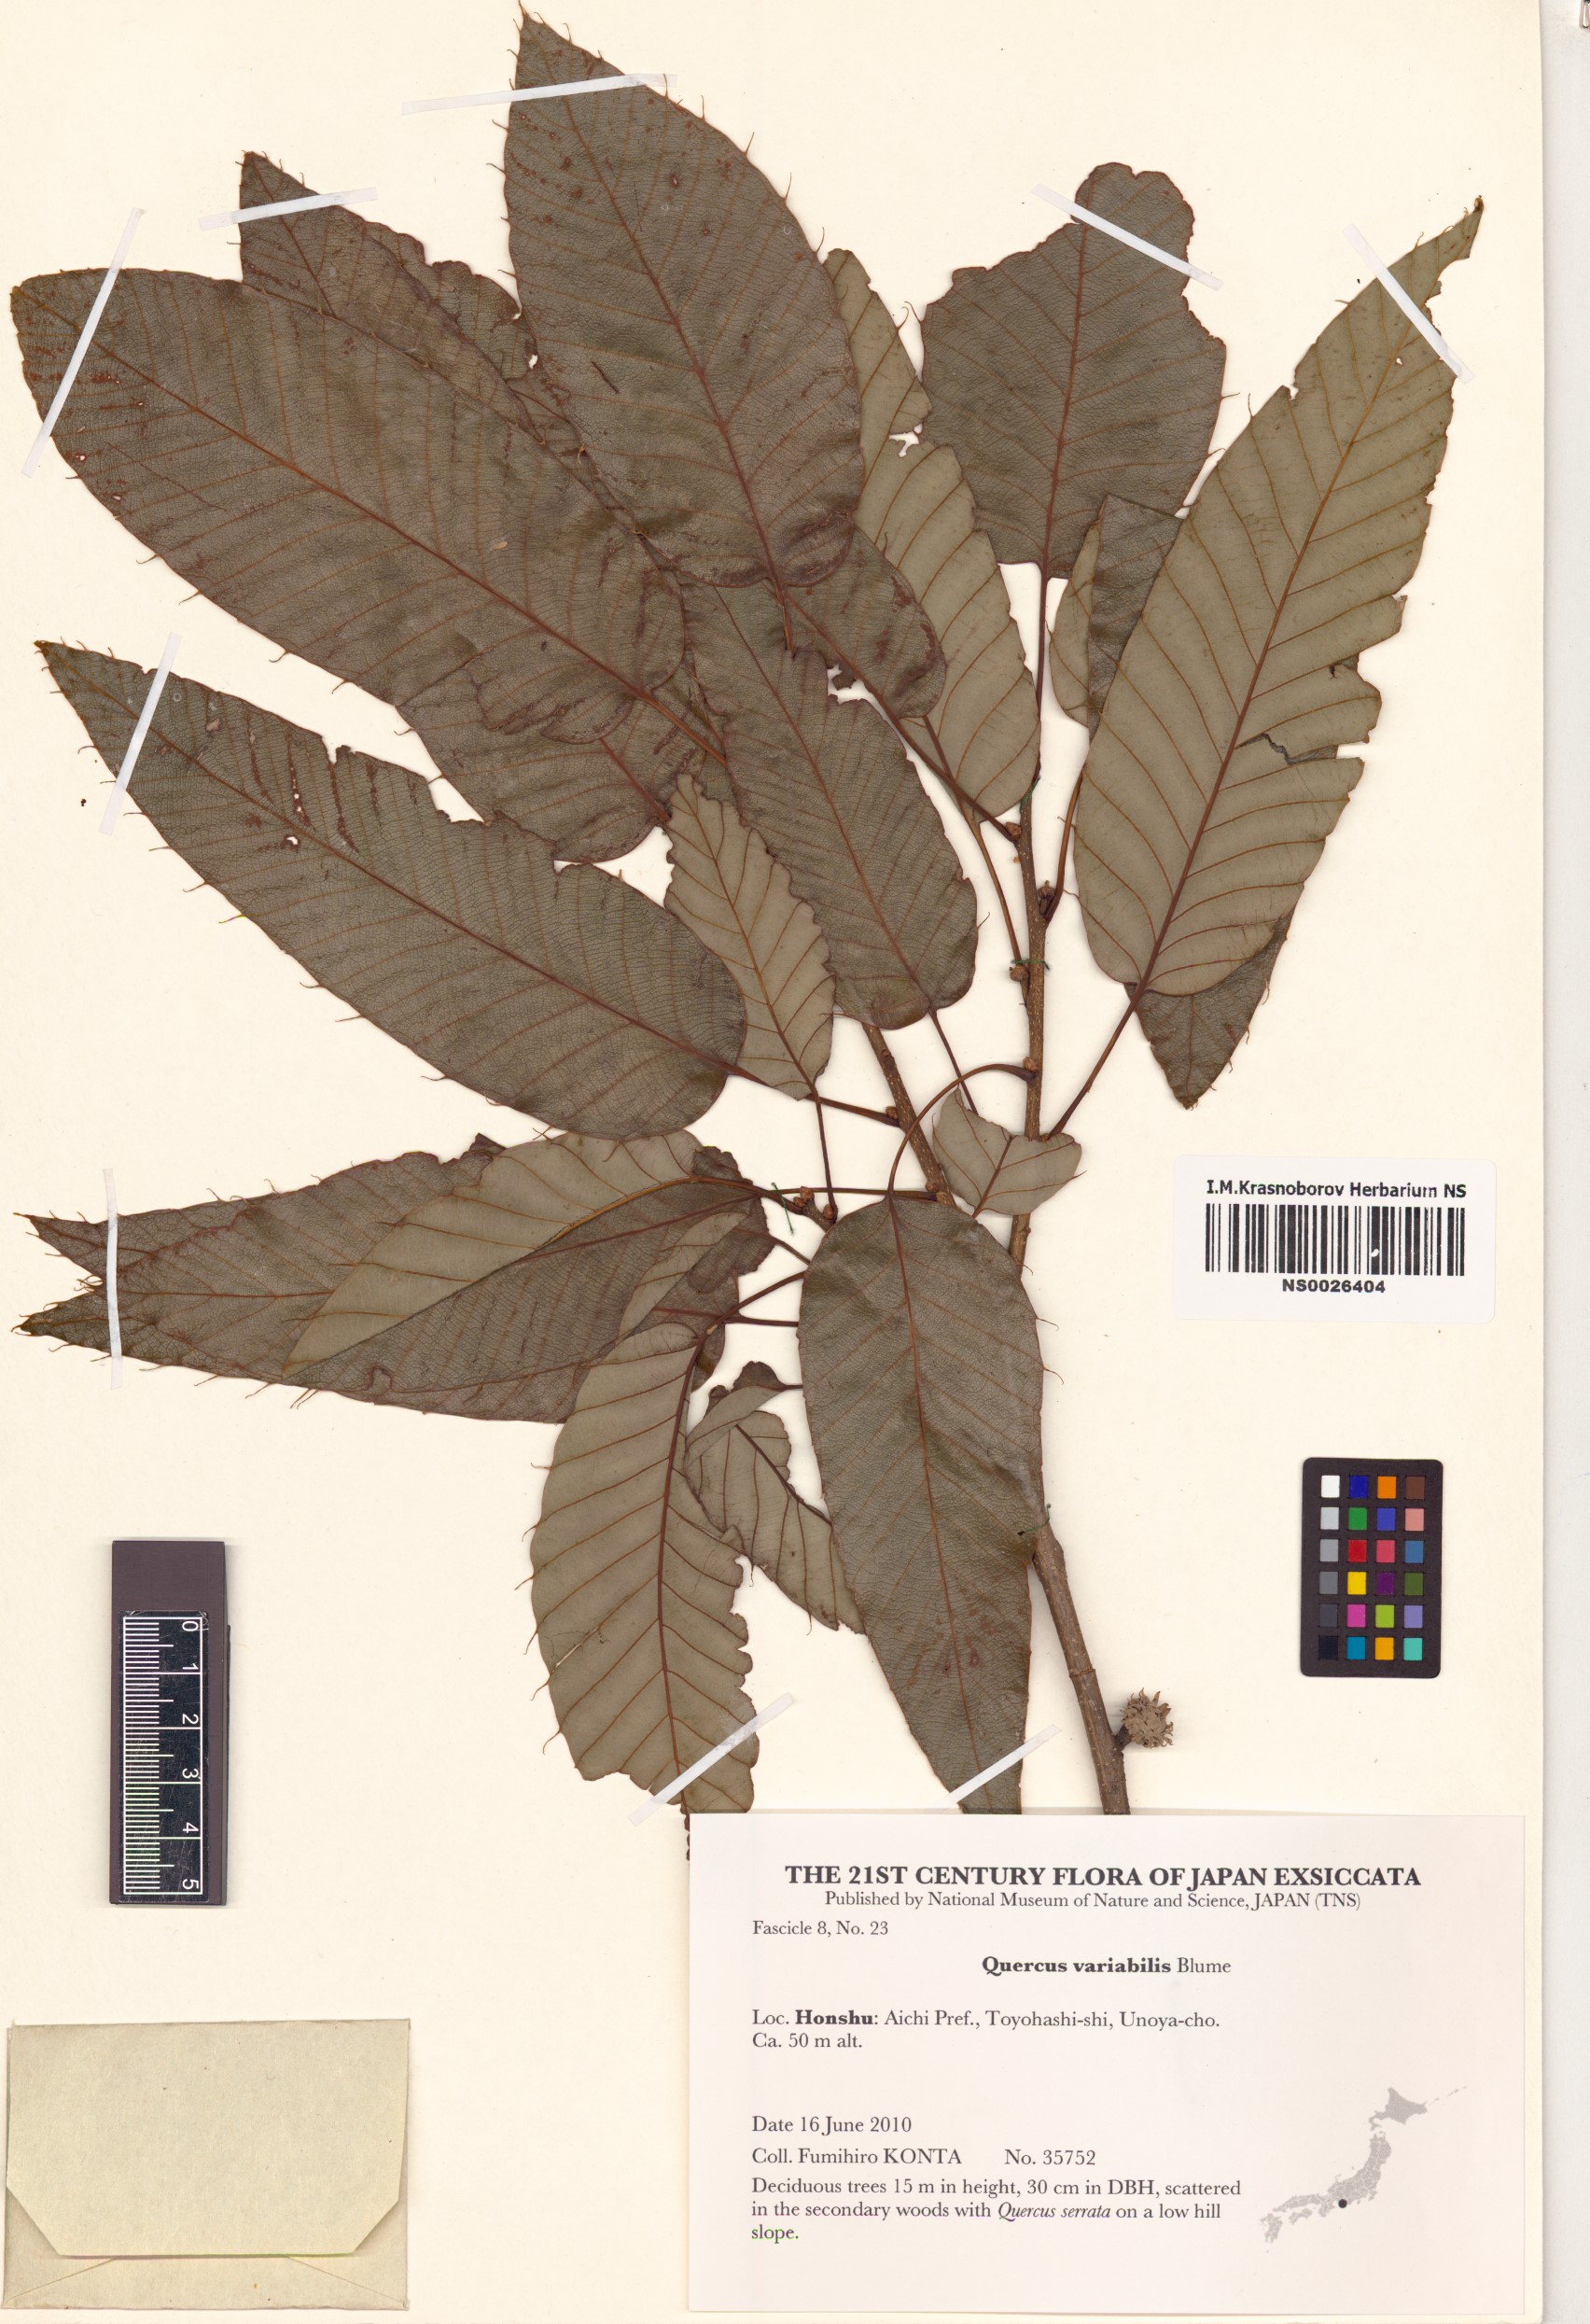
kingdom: Plantae
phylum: Tracheophyta
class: Magnoliopsida
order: Fagales
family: Fagaceae
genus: Quercus
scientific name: Quercus variabilis
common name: Chinese cork oak
